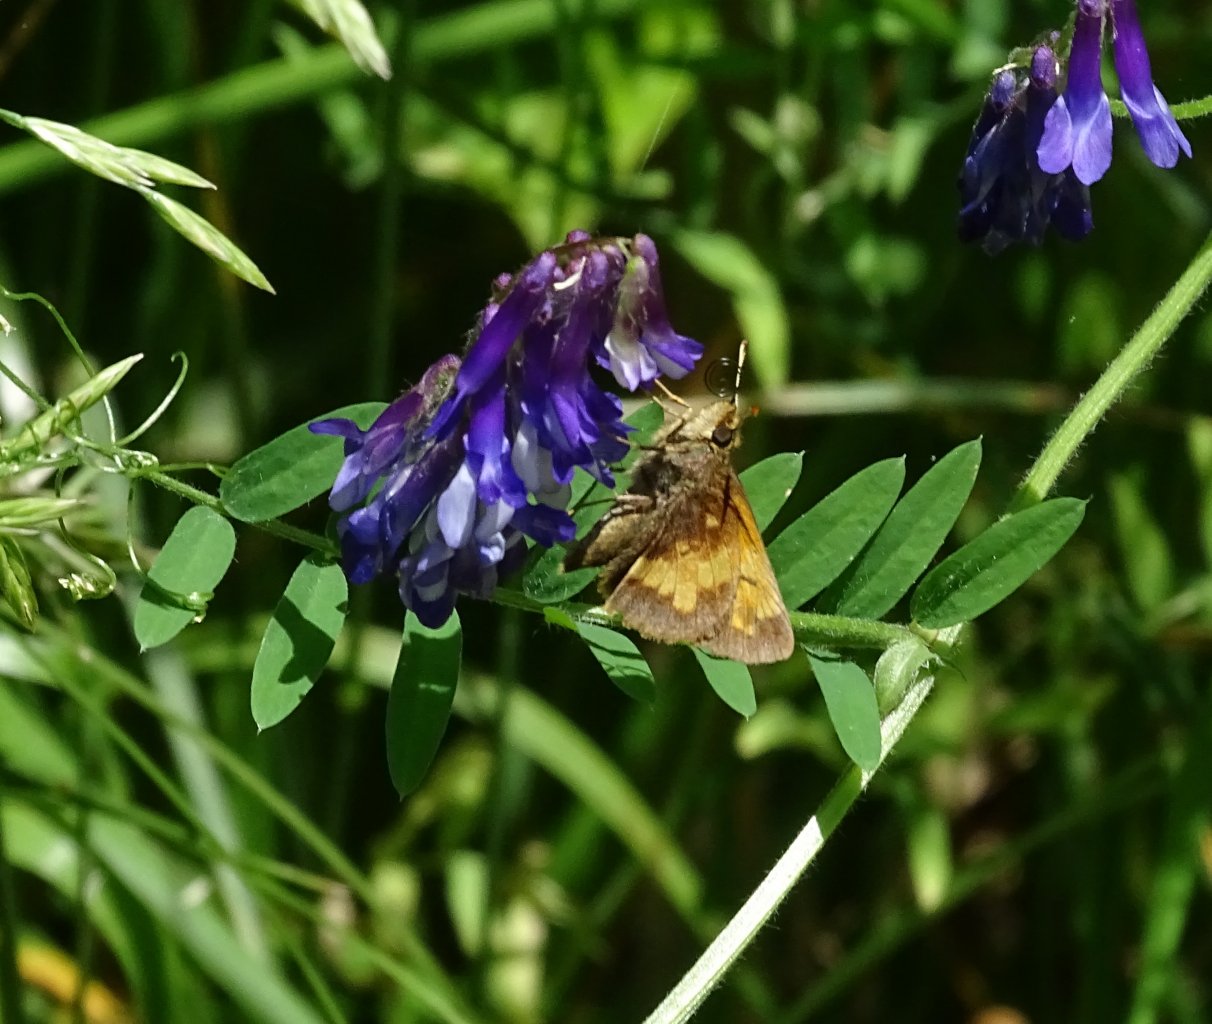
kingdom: Animalia
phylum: Arthropoda
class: Insecta
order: Lepidoptera
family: Hesperiidae
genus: Lon
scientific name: Lon hobomok
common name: Hobomok Skipper
